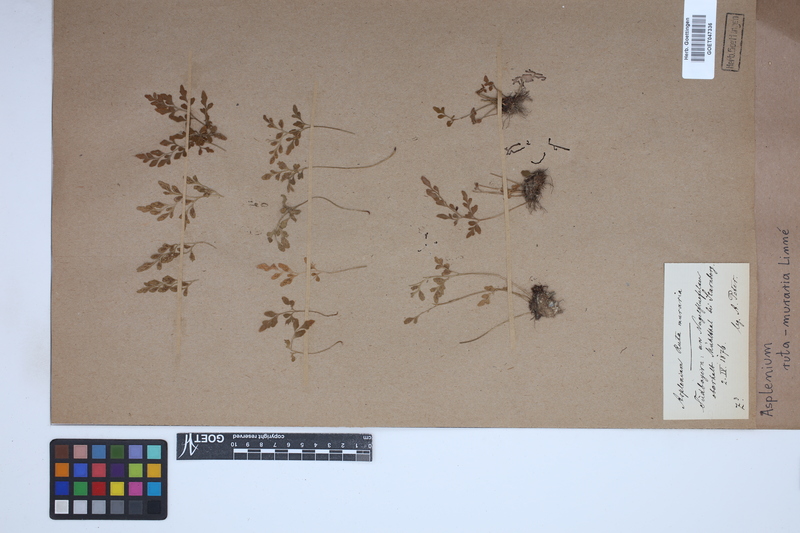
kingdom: Plantae
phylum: Tracheophyta
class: Polypodiopsida
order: Polypodiales
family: Aspleniaceae
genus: Asplenium
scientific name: Asplenium ruta-muraria
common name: Wall-rue
